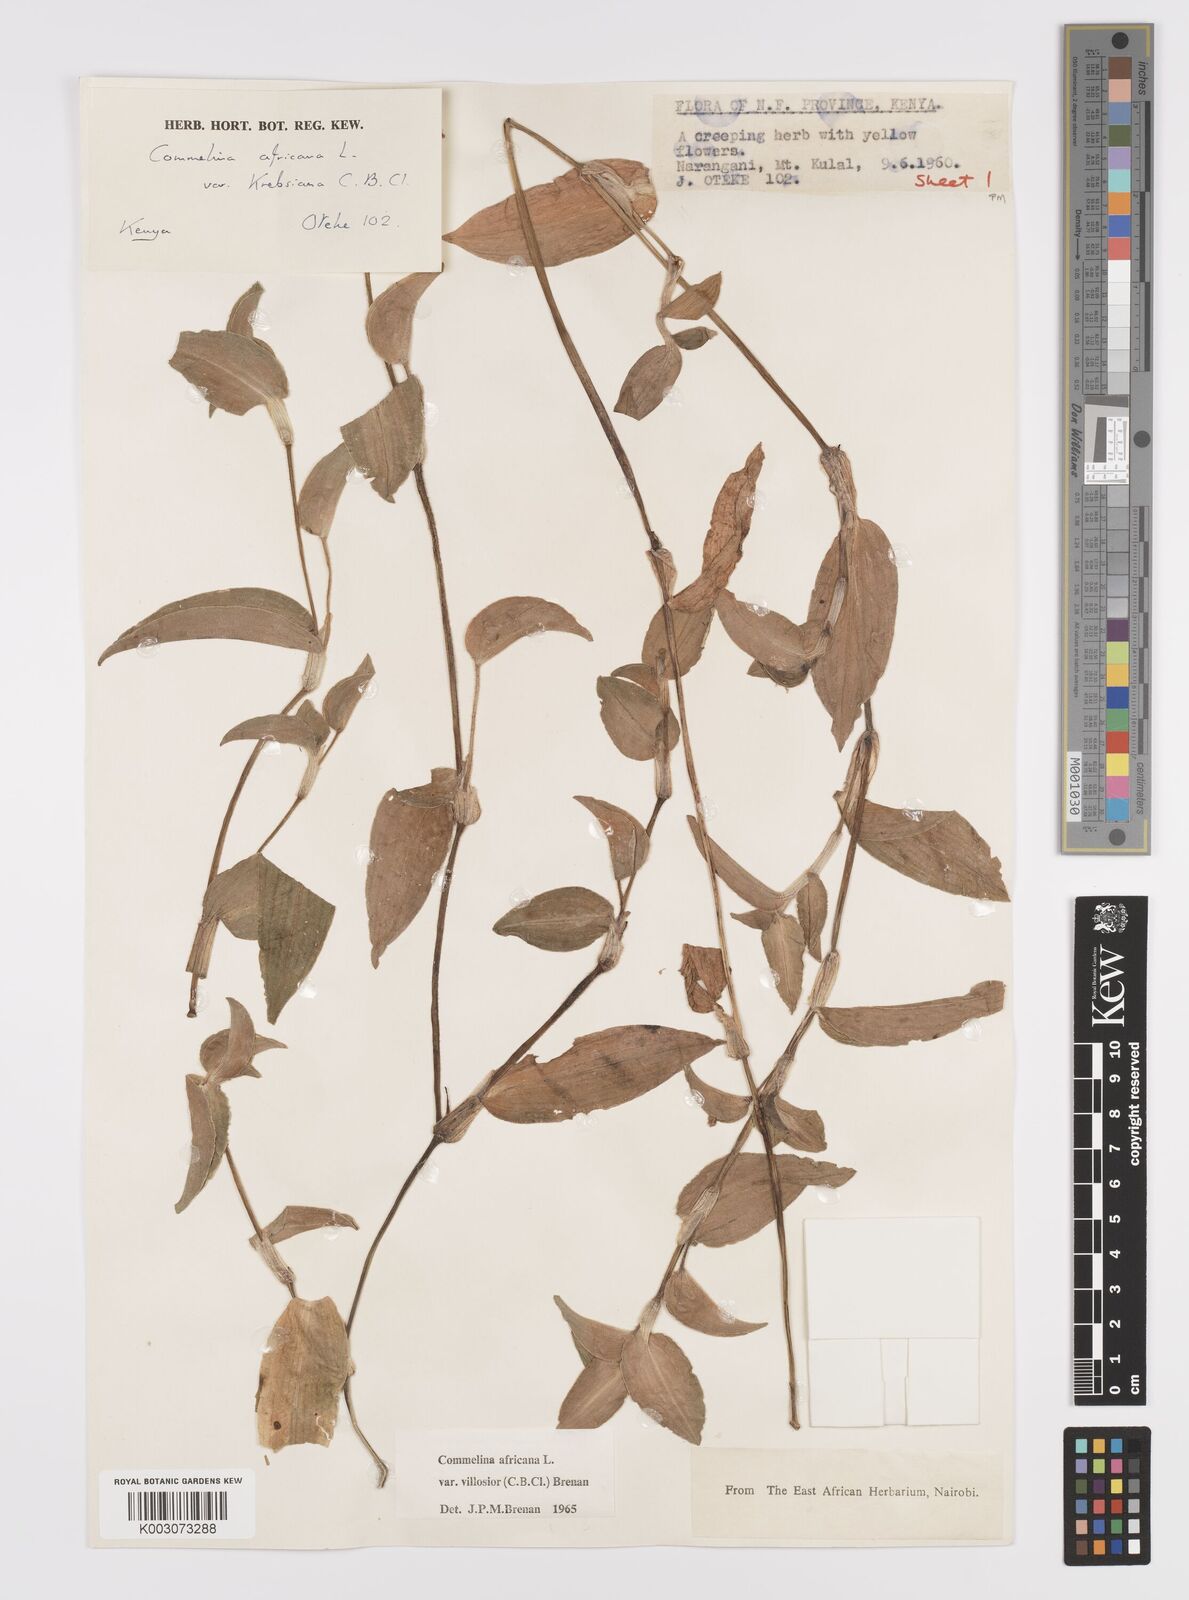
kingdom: Plantae
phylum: Tracheophyta
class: Liliopsida
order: Commelinales
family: Commelinaceae
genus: Commelina
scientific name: Commelina africana
